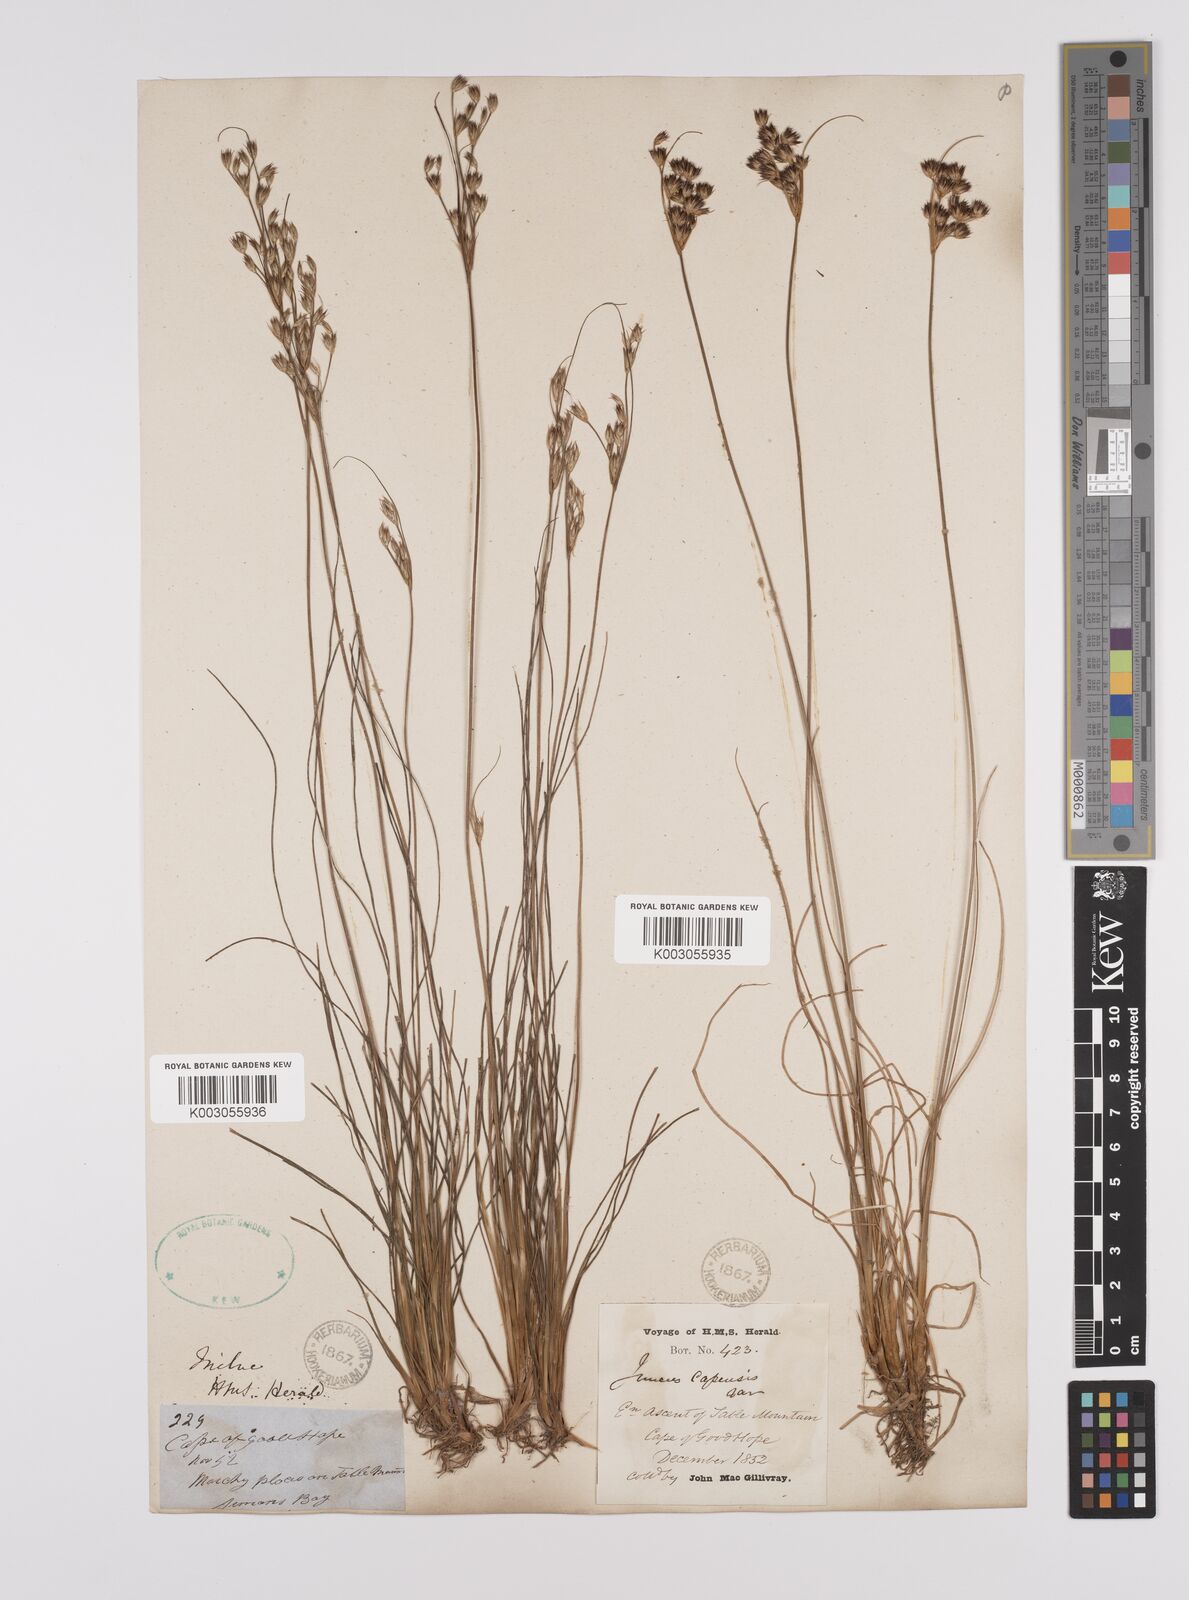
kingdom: Plantae
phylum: Tracheophyta
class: Liliopsida
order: Poales
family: Juncaceae
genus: Juncus
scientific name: Juncus capensis
